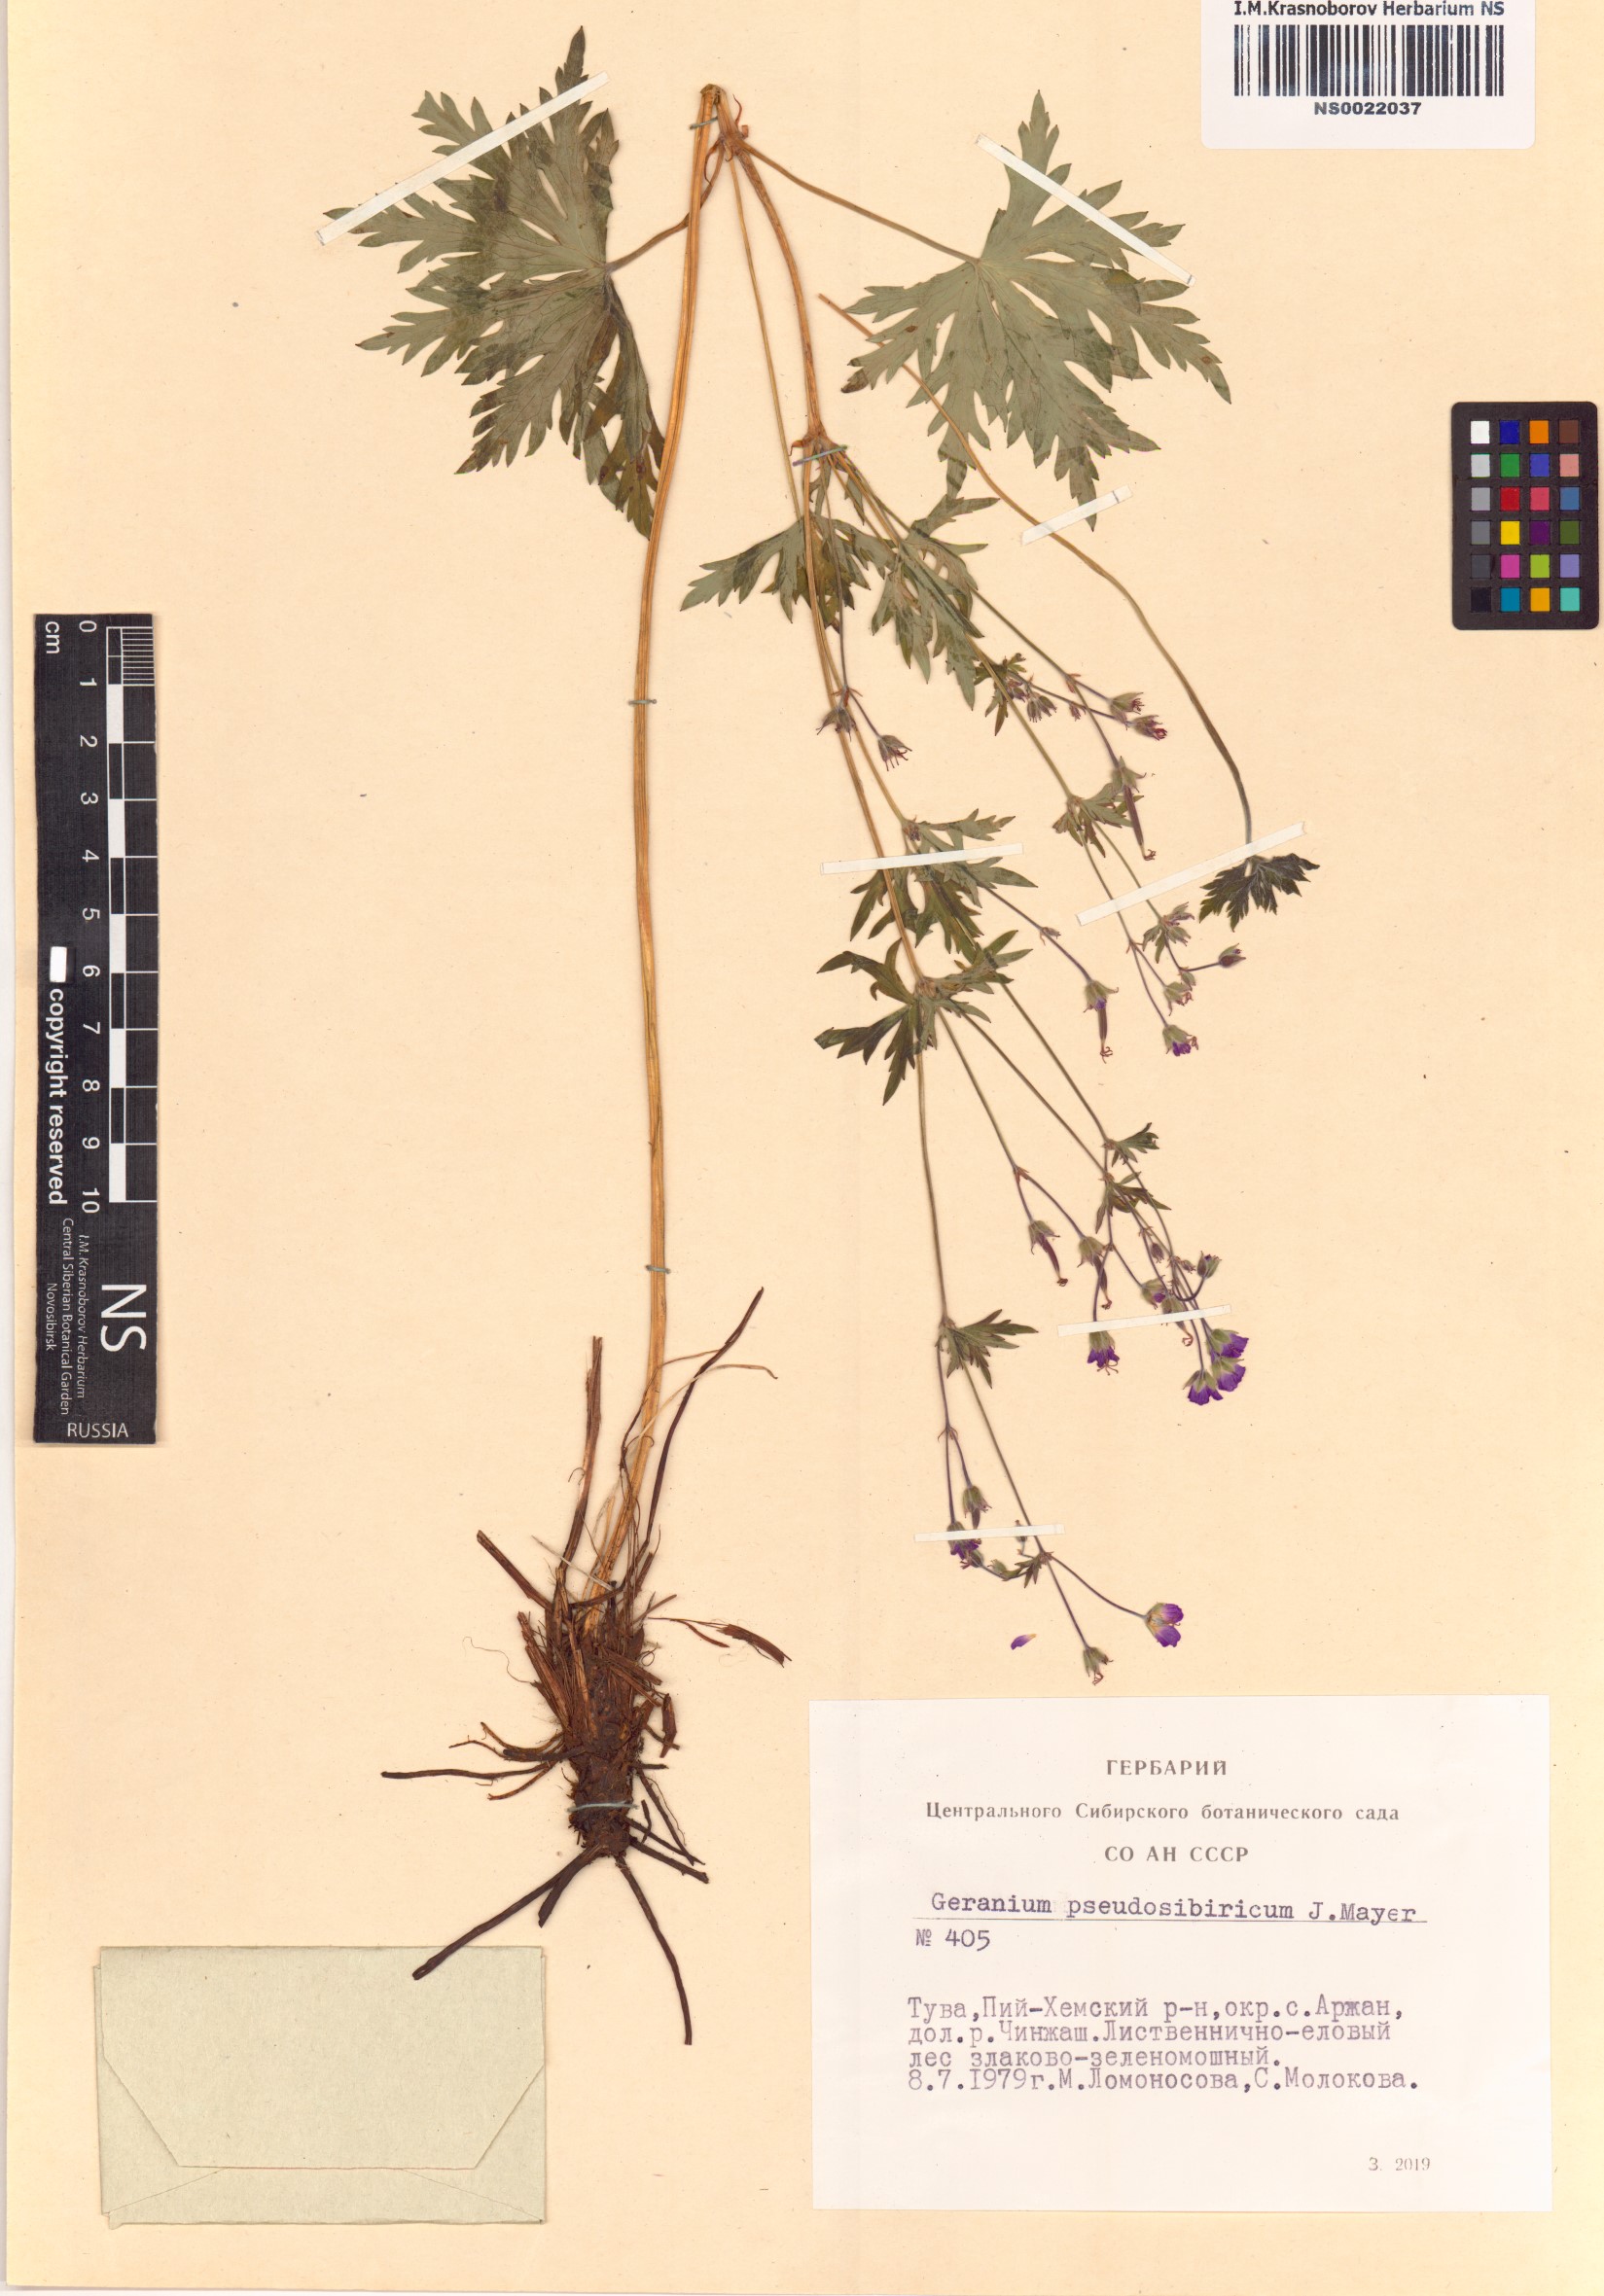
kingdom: Plantae
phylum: Tracheophyta
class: Magnoliopsida
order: Geraniales
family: Geraniaceae
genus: Geranium
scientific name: Geranium pseudosibiricum
